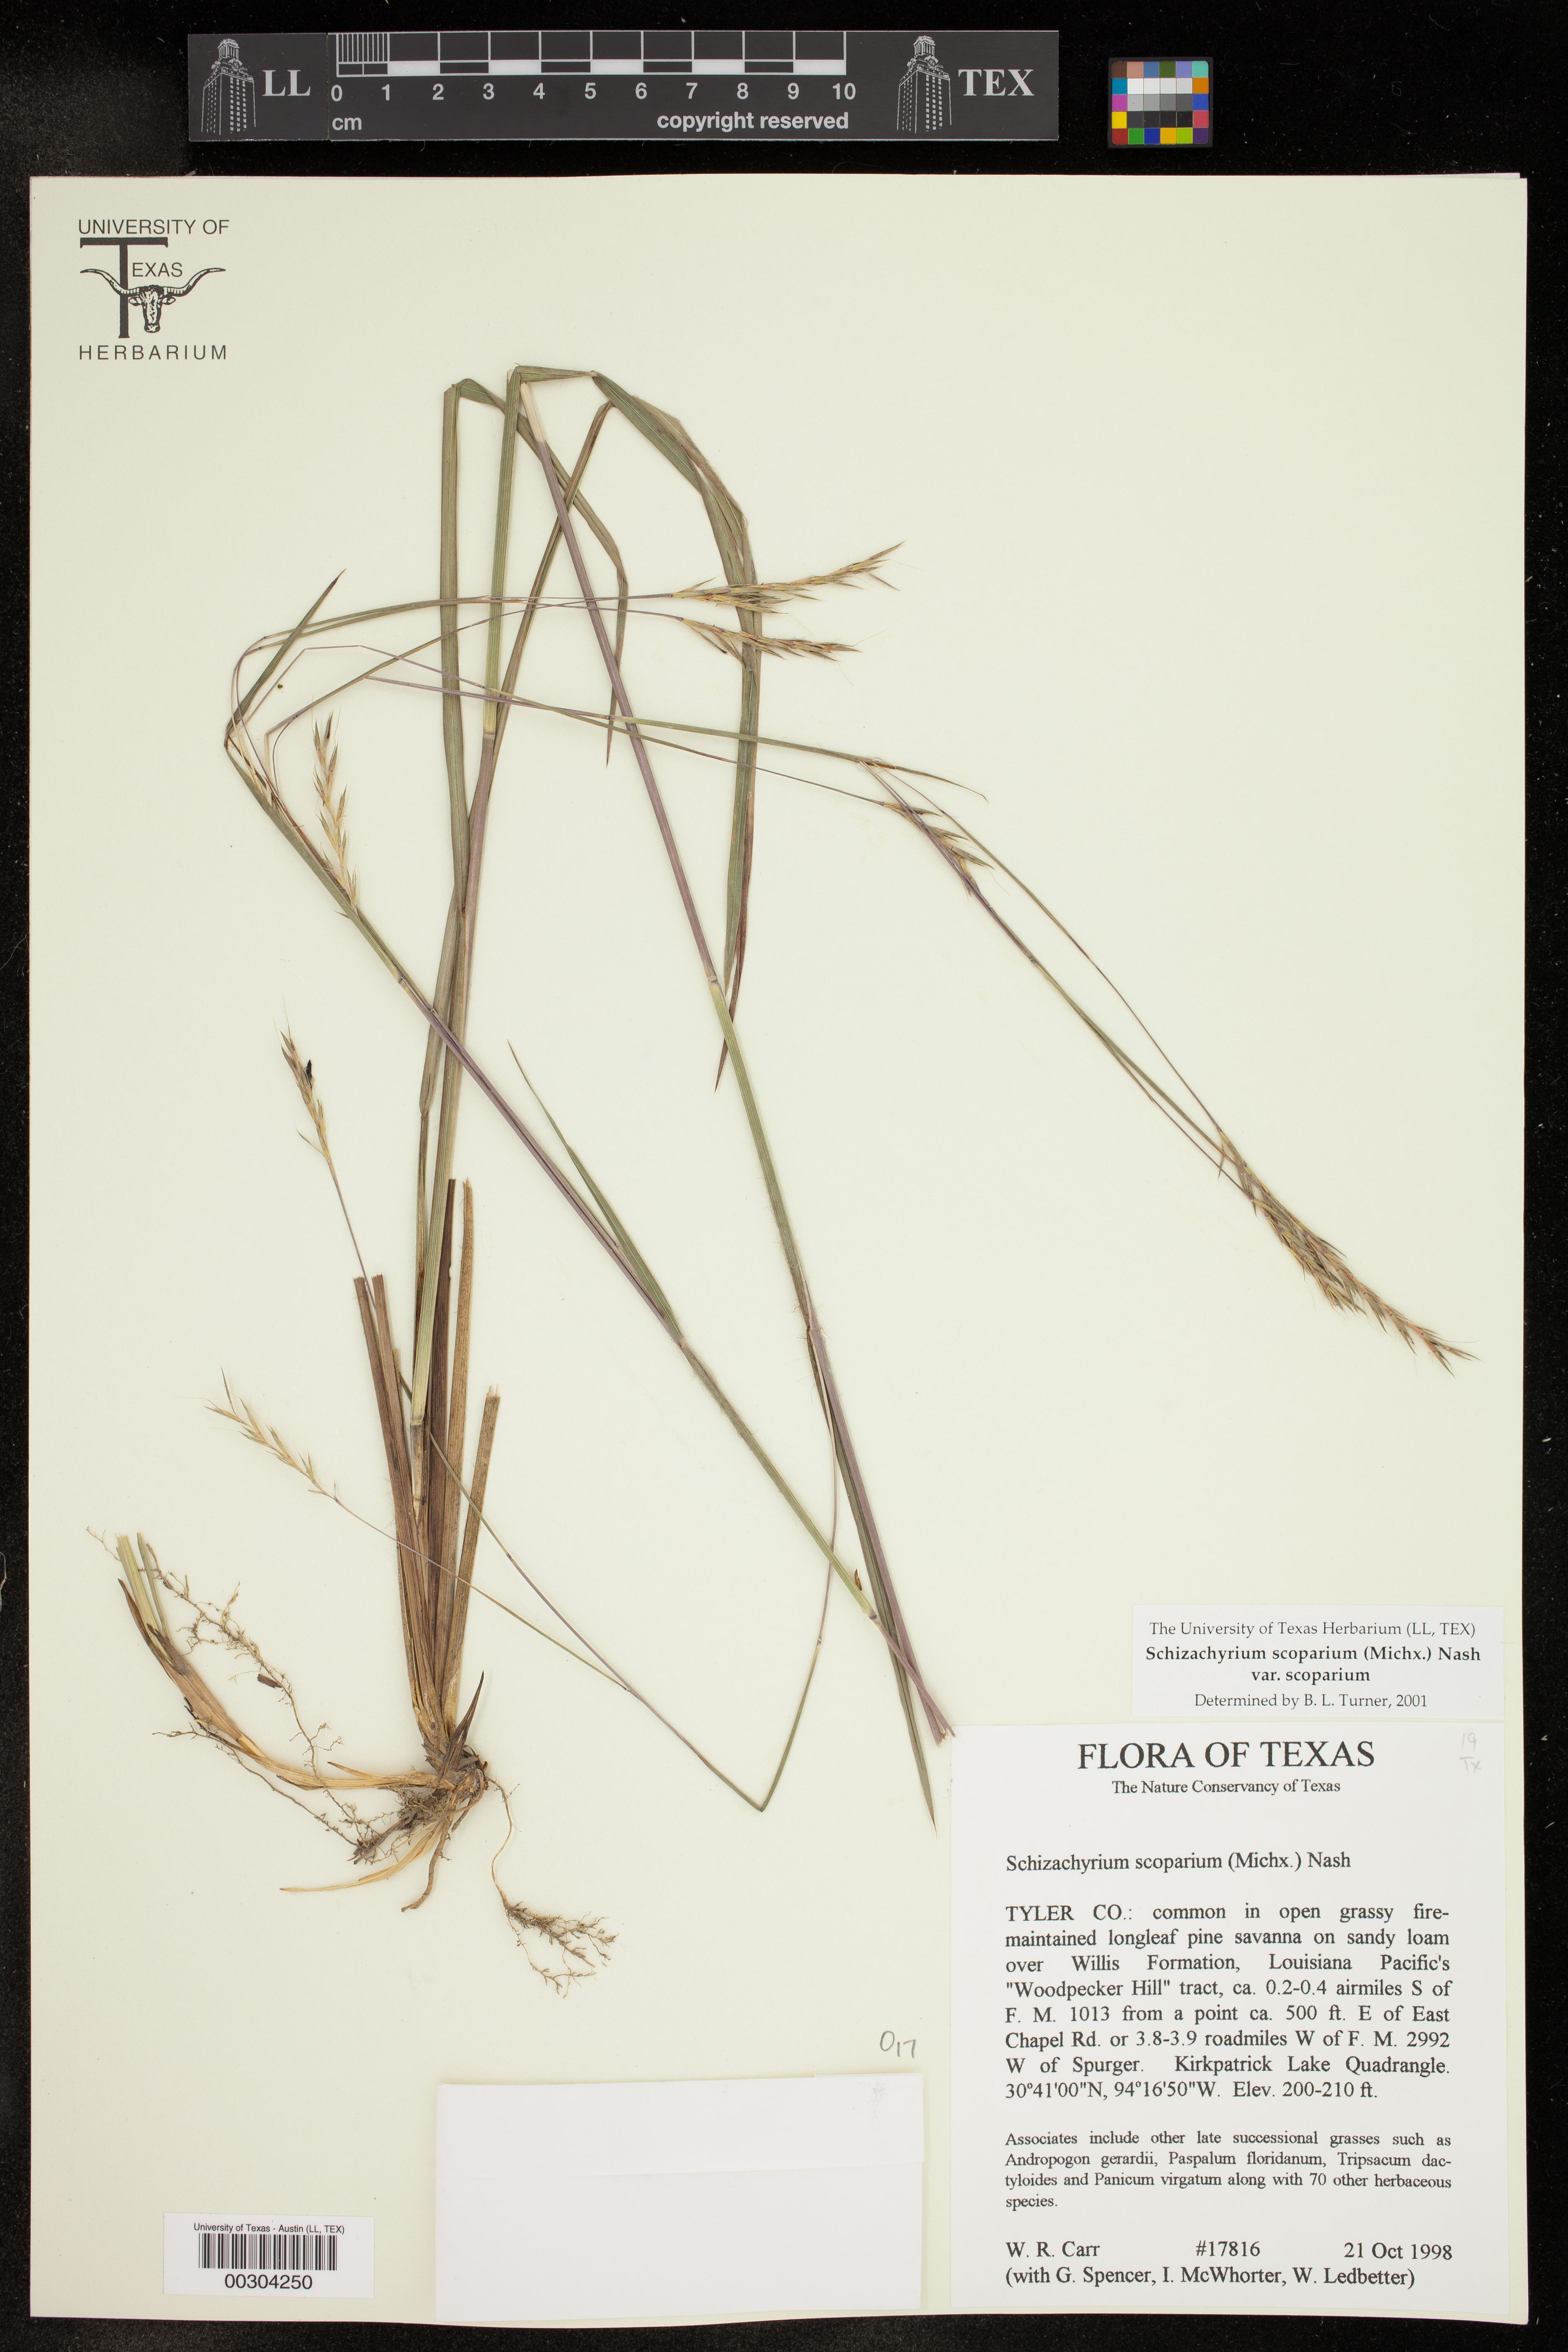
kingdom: Plantae
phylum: Tracheophyta
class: Liliopsida
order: Poales
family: Poaceae
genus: Schizachyrium
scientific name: Schizachyrium scoparium
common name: Little bluestem
